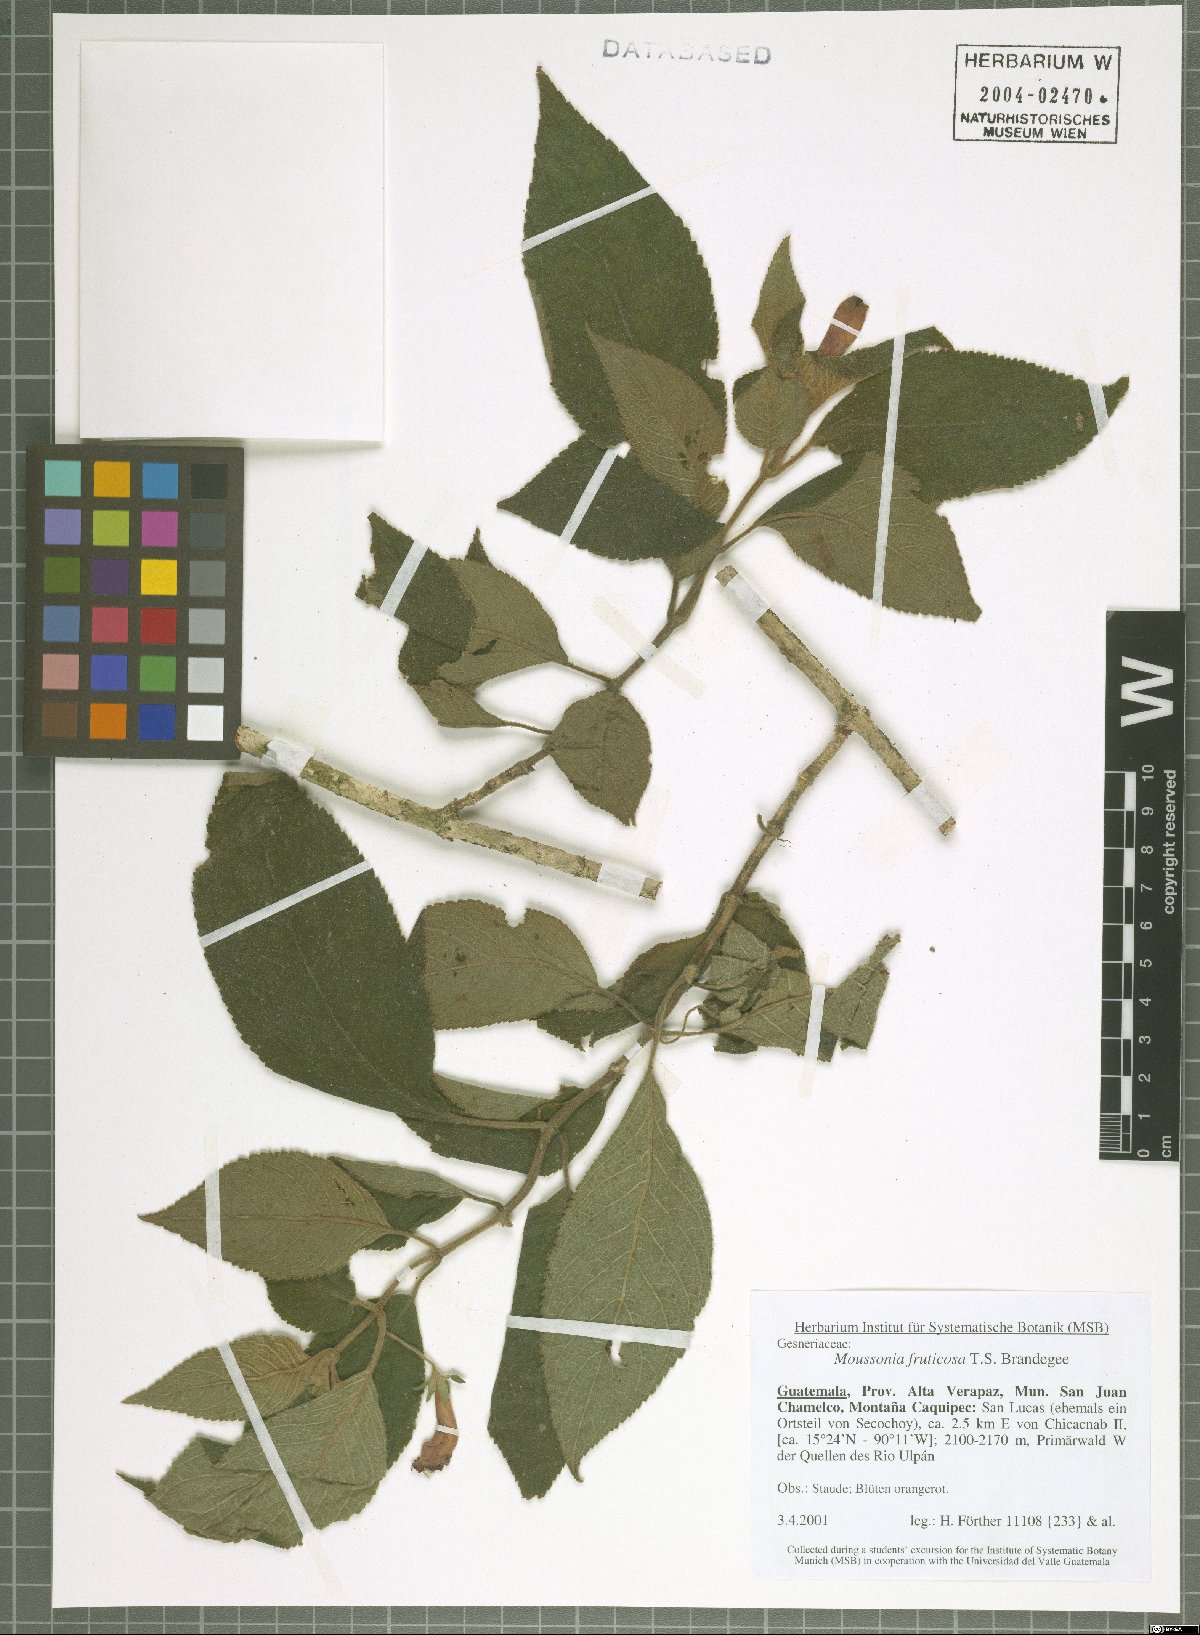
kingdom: Plantae
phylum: Tracheophyta
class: Magnoliopsida
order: Lamiales
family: Gesneriaceae
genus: Moussonia
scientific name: Moussonia fruticosa
